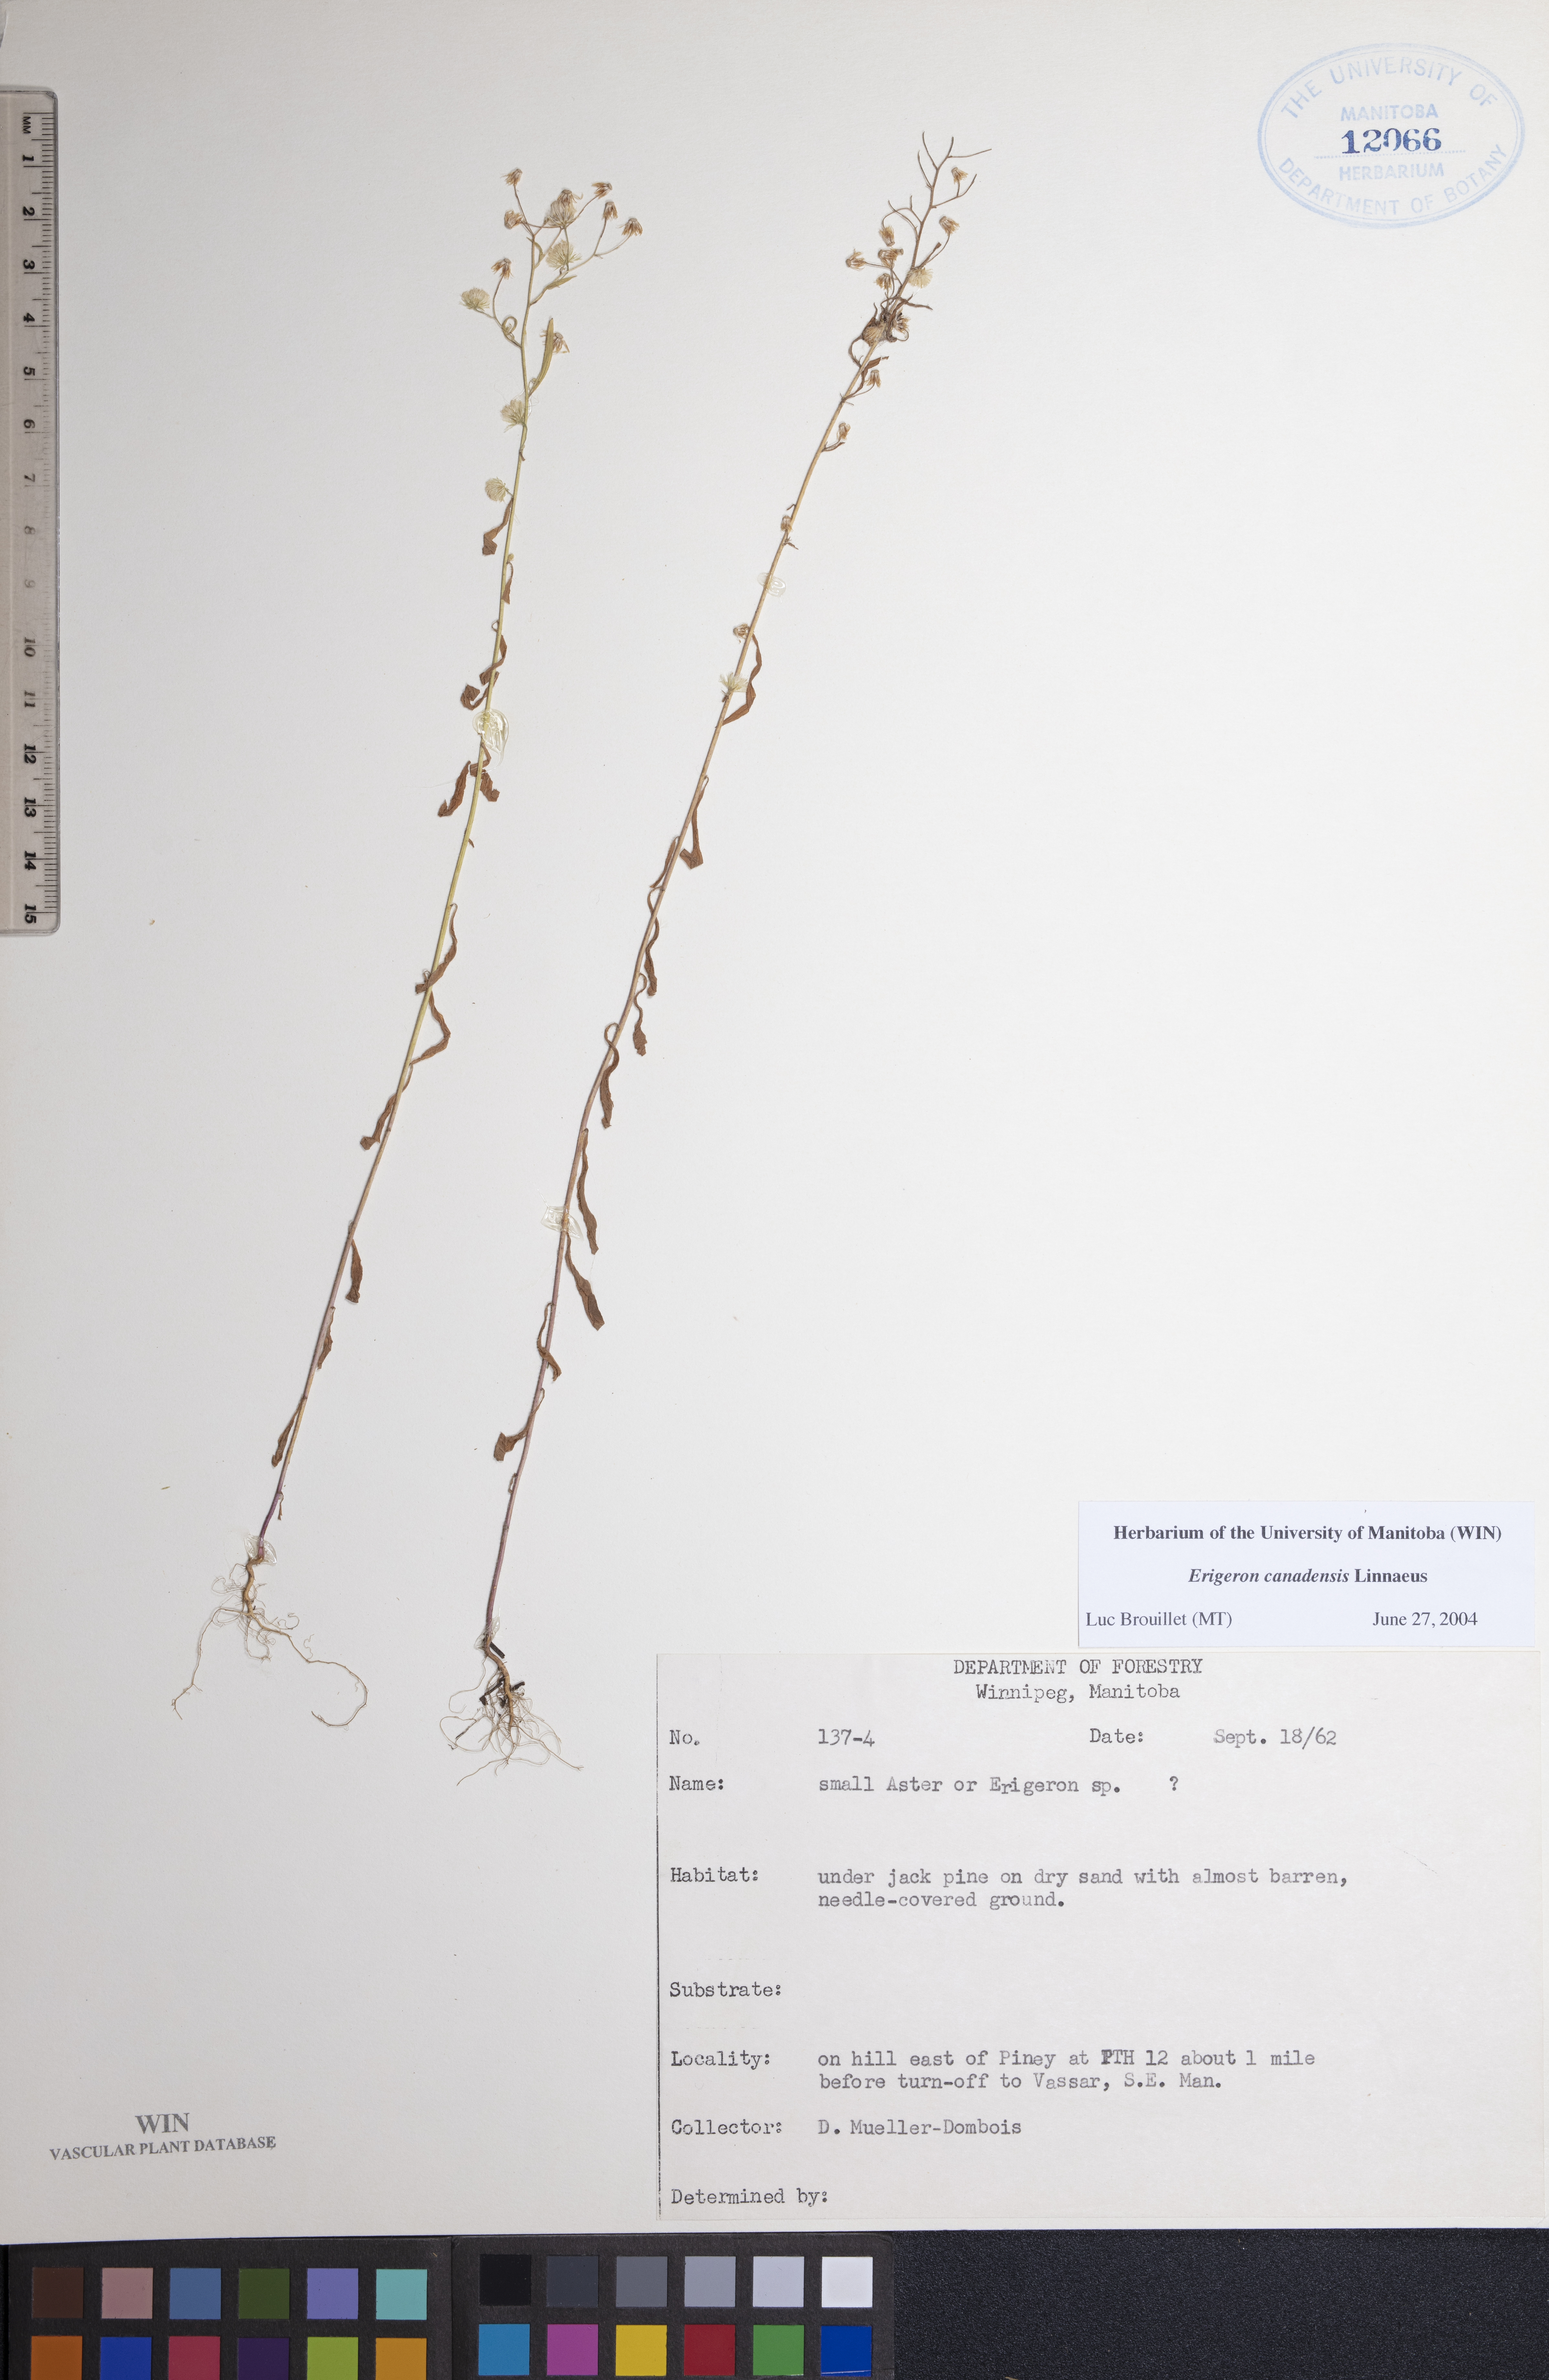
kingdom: Plantae
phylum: Tracheophyta
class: Magnoliopsida
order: Asterales
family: Asteraceae
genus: Erigeron
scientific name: Erigeron canadensis
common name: Canadian fleabane
